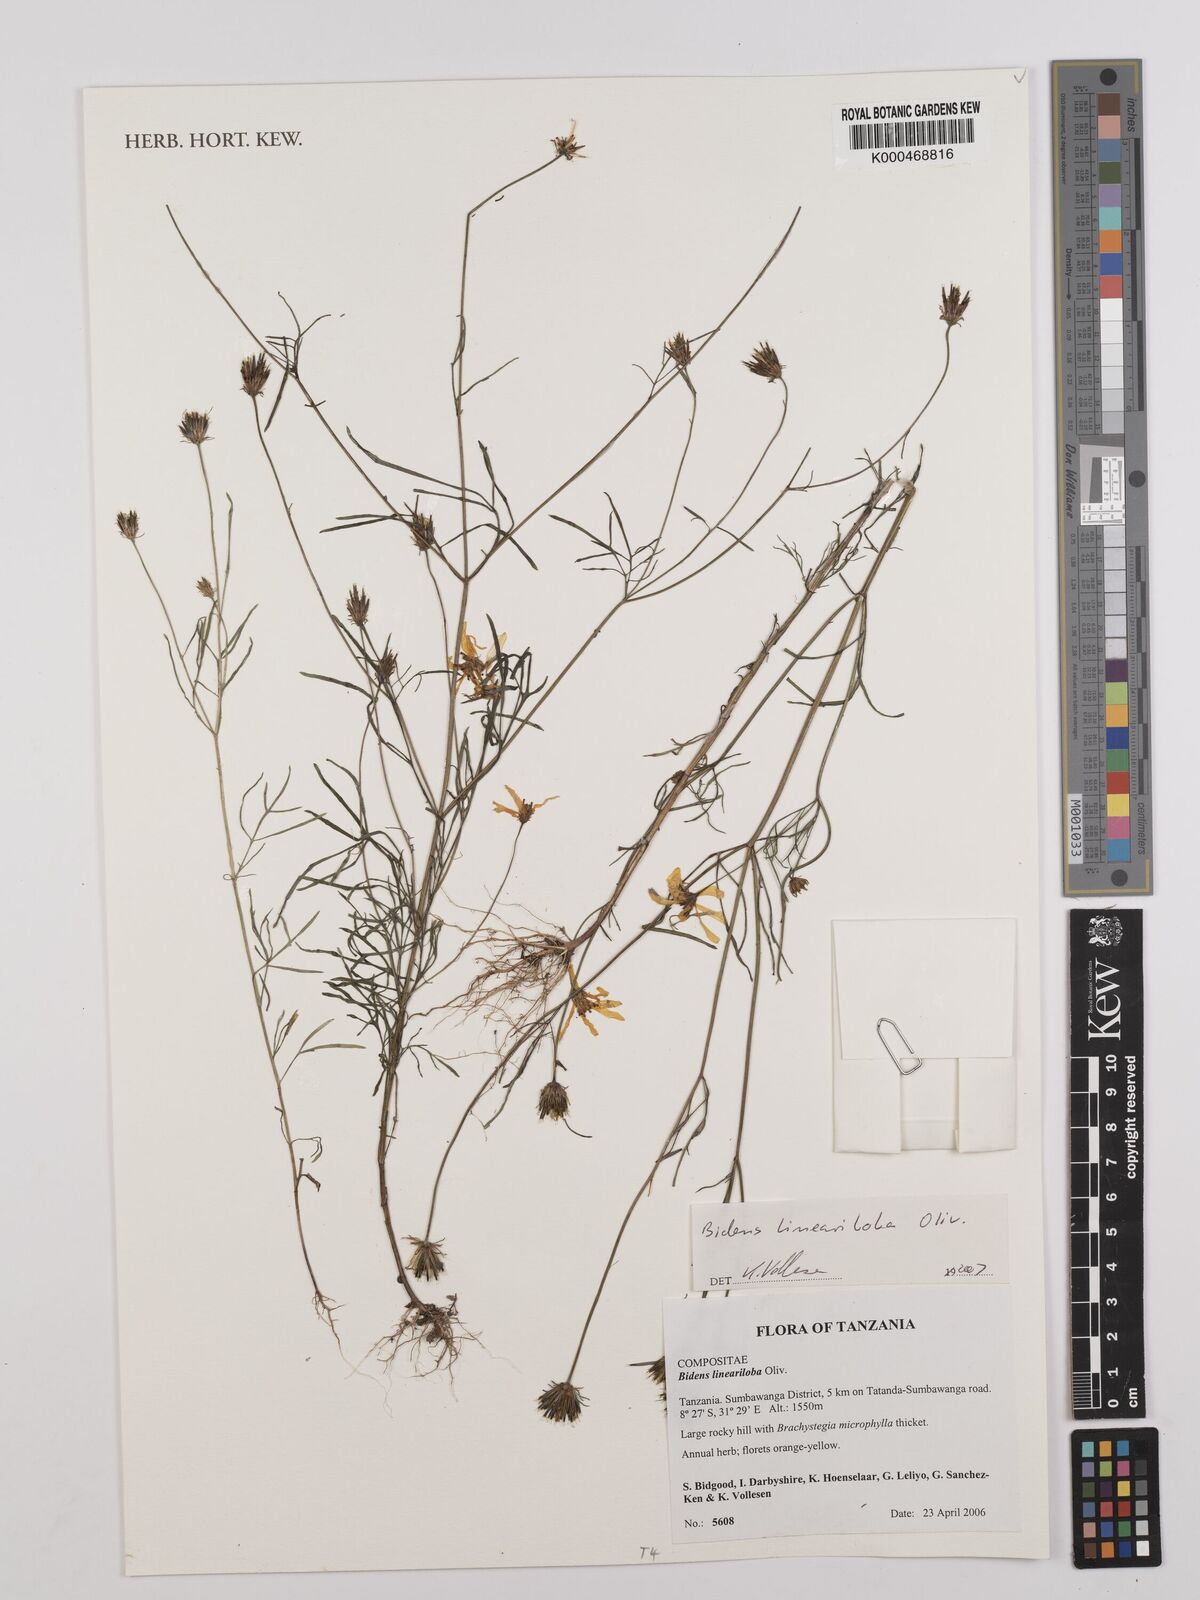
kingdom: Plantae
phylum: Tracheophyta
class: Magnoliopsida
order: Asterales
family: Asteraceae
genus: Bidens
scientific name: Bidens lineariloba
